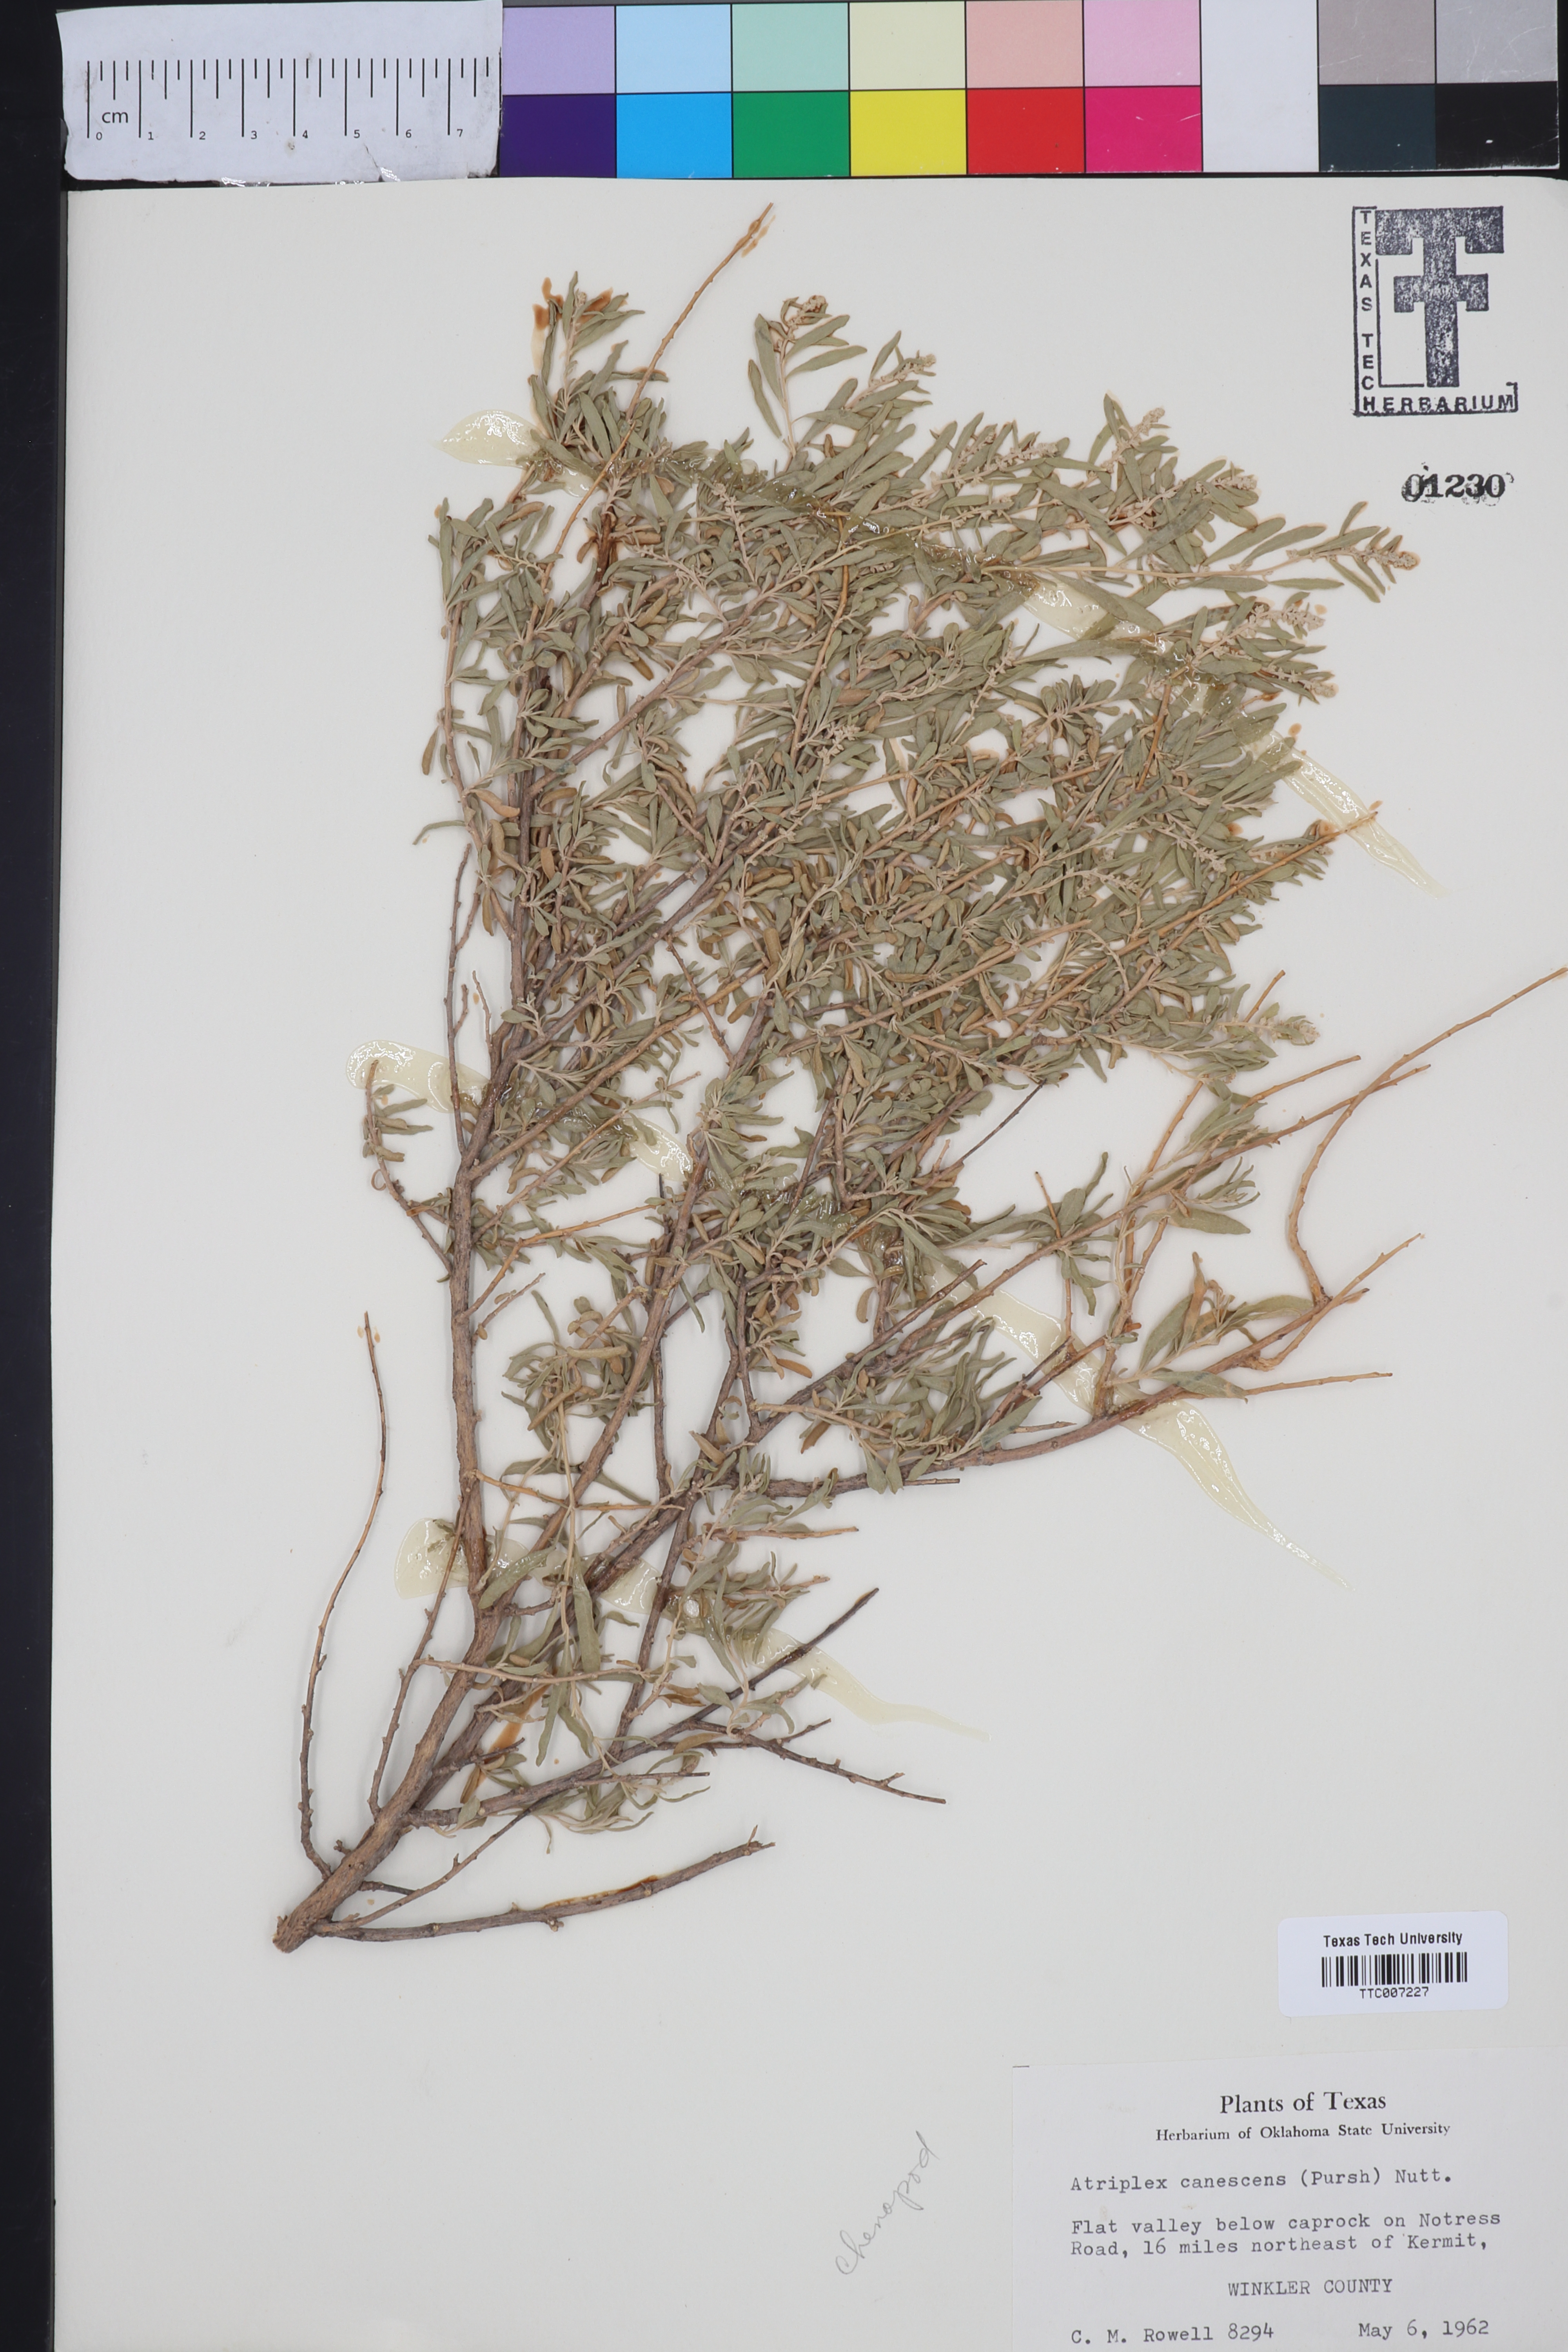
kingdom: Plantae
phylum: Tracheophyta
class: Magnoliopsida
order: Caryophyllales
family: Amaranthaceae
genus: Atriplex
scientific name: Atriplex canescens
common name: Four-wing saltbush
